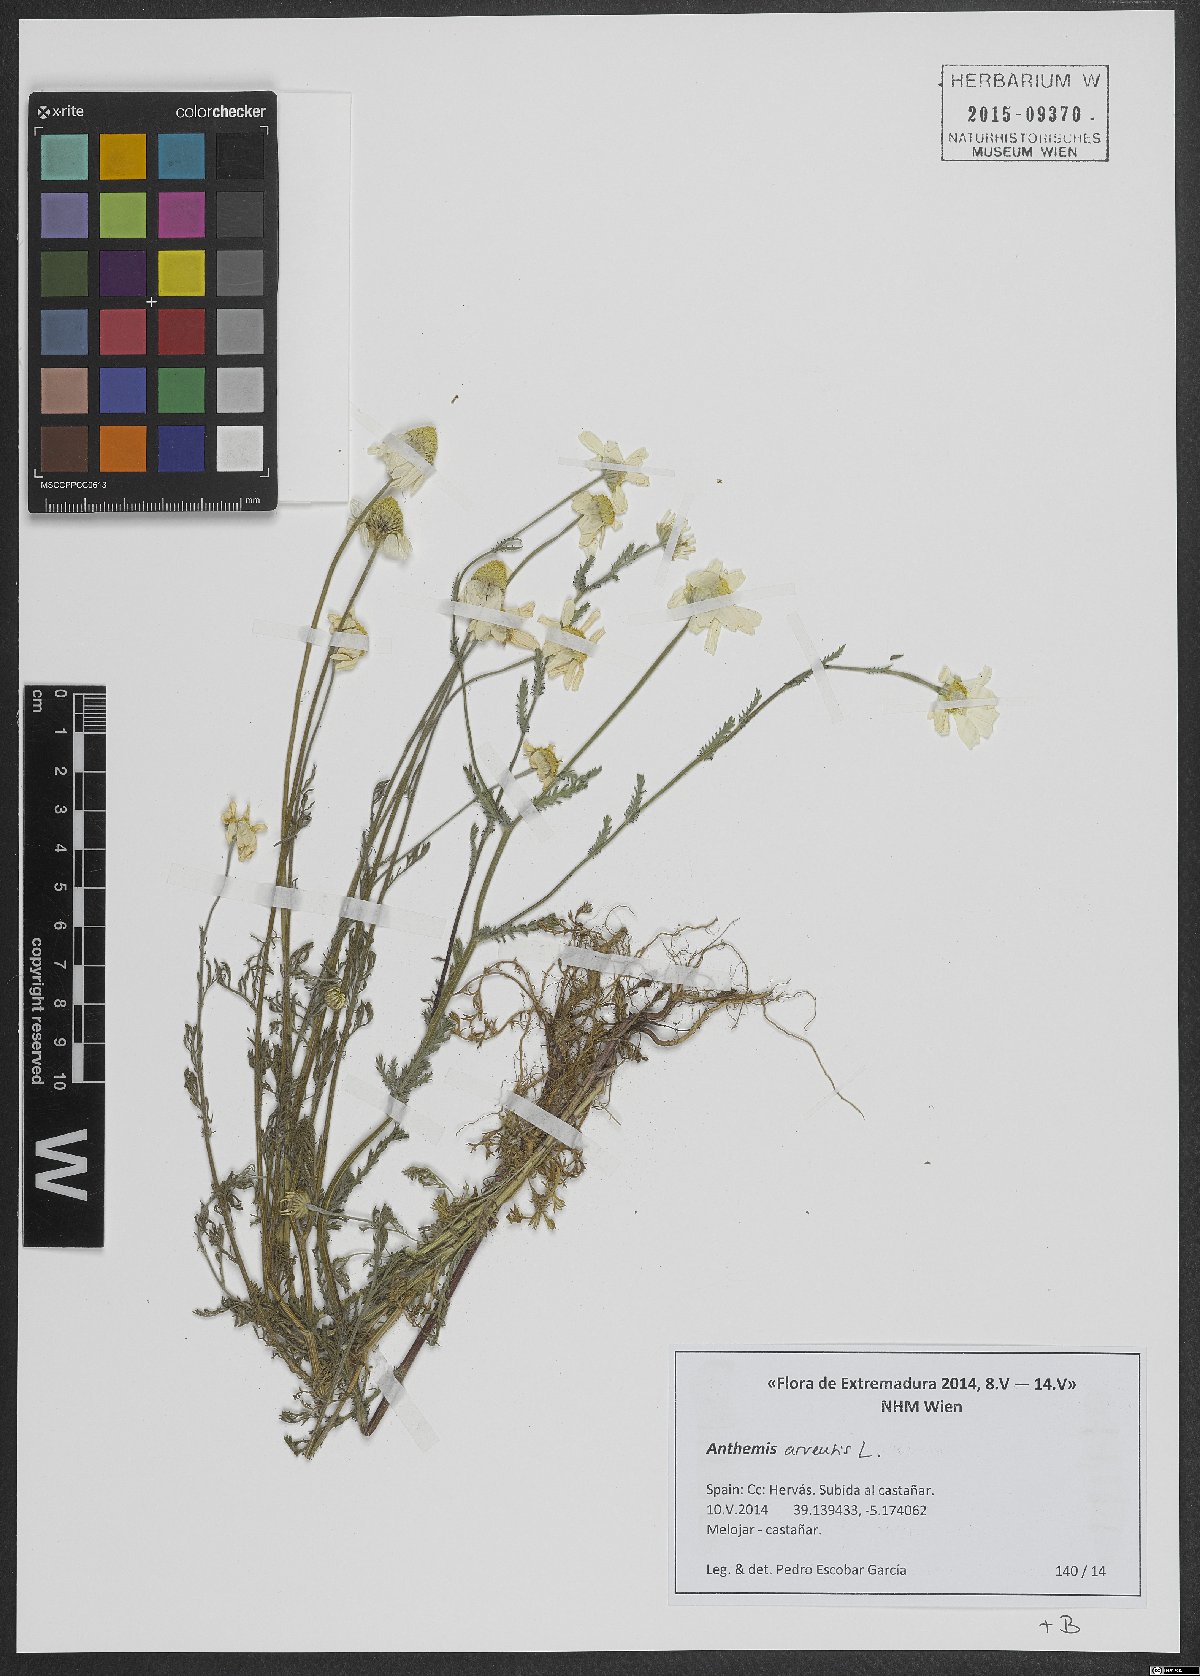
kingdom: Plantae
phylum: Tracheophyta
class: Magnoliopsida
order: Asterales
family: Asteraceae
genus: Anthemis
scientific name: Anthemis arvensis
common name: Corn chamomile
